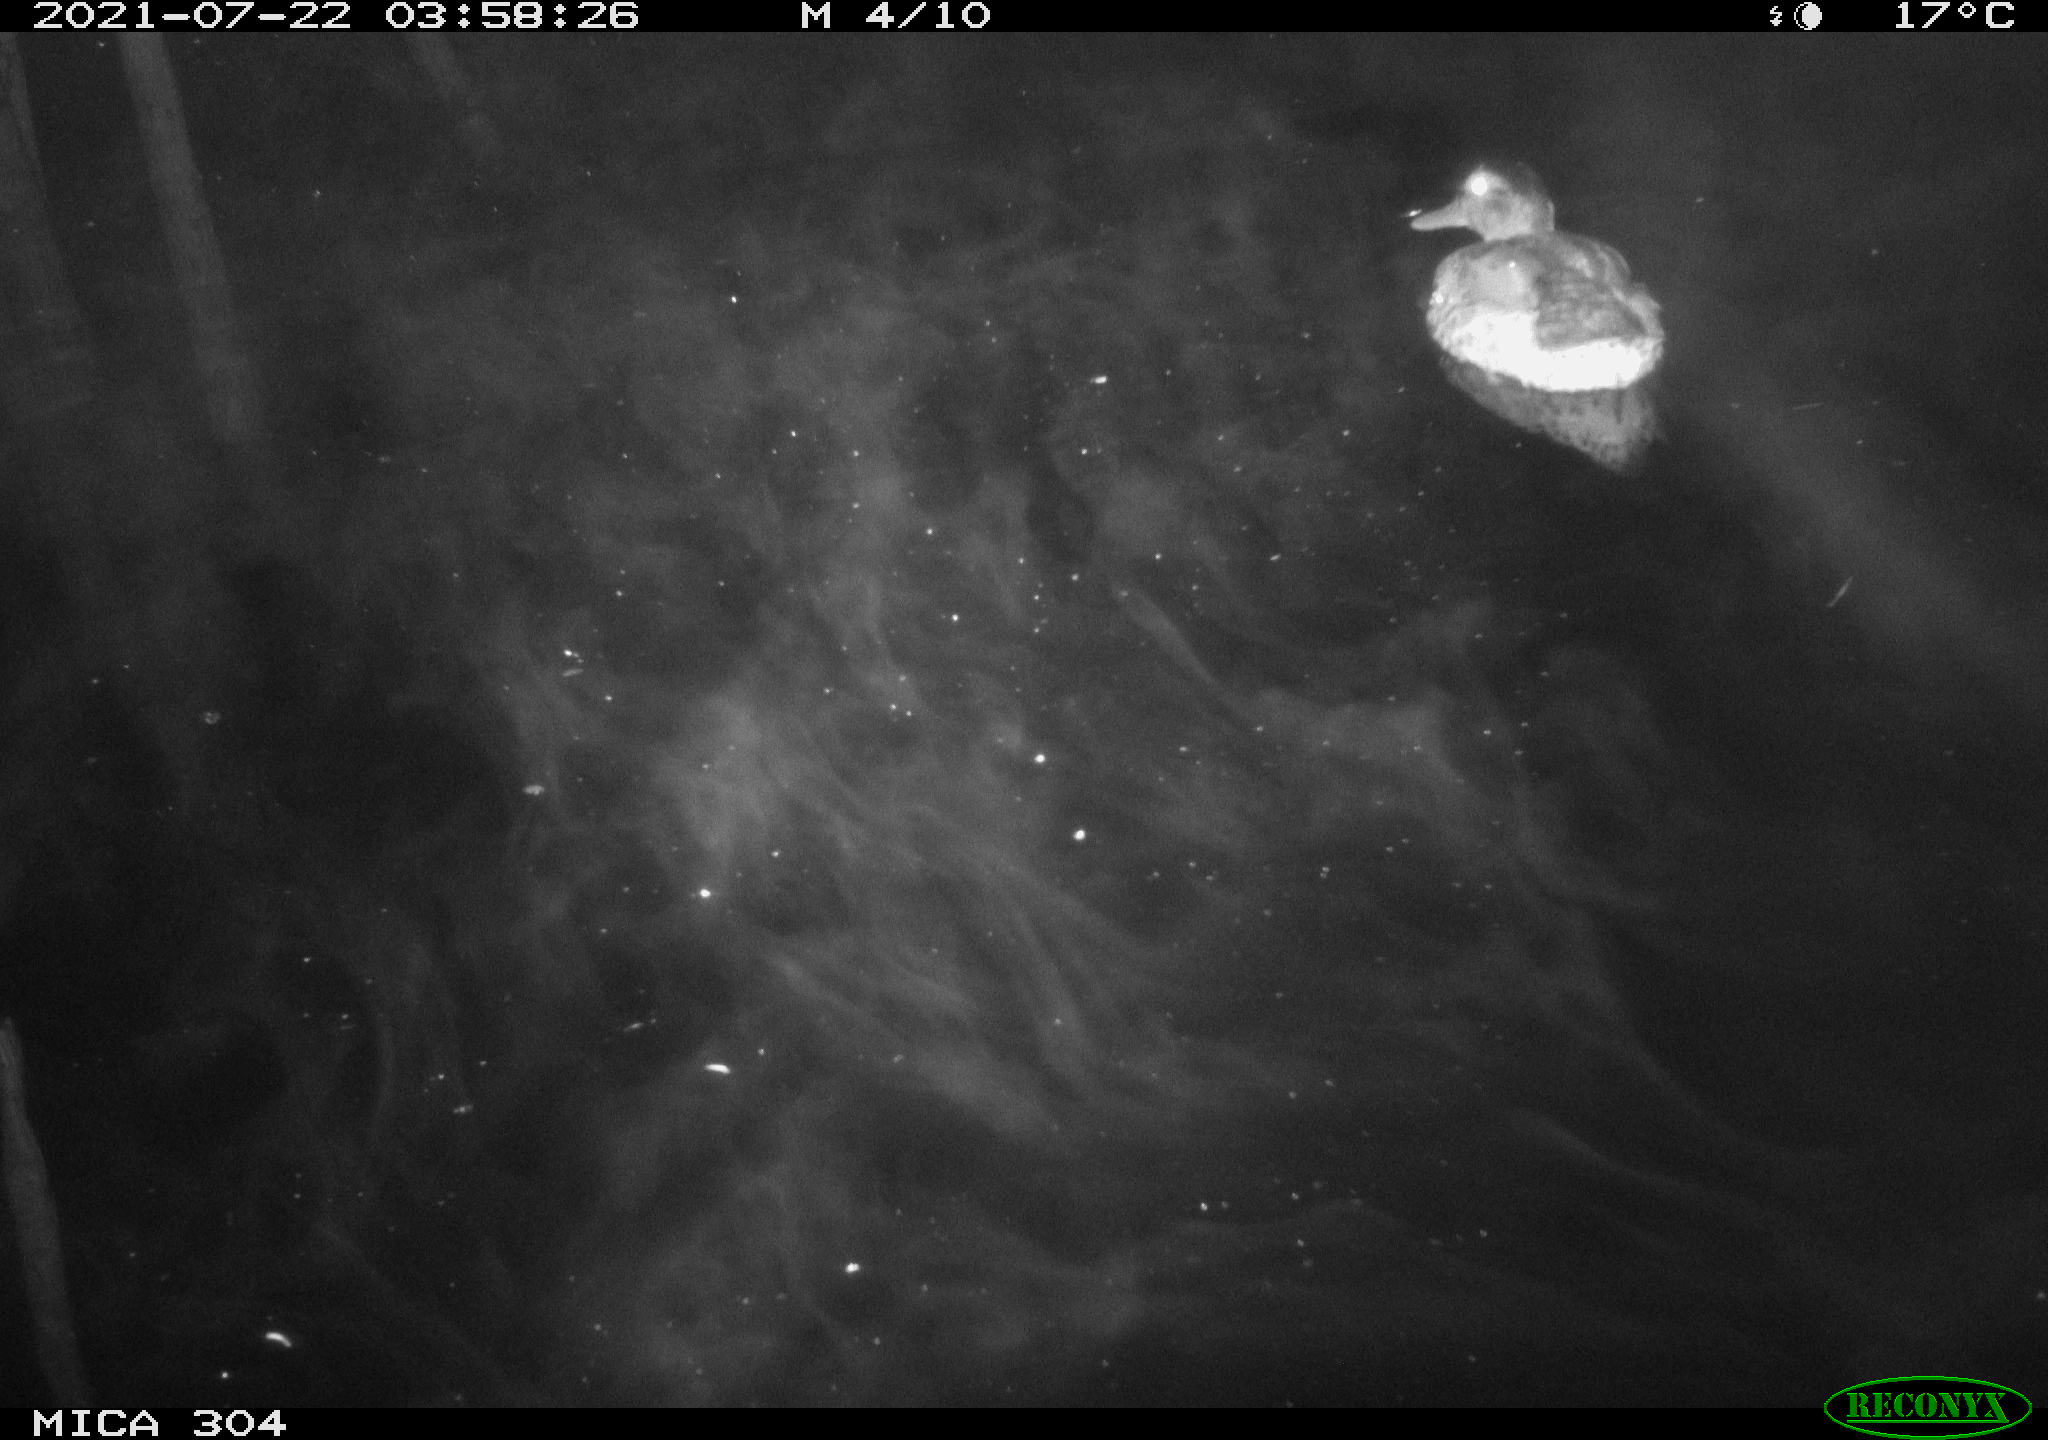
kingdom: Animalia
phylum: Chordata
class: Aves
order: Anseriformes
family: Anatidae
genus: Anas
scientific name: Anas platyrhynchos
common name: Mallard
